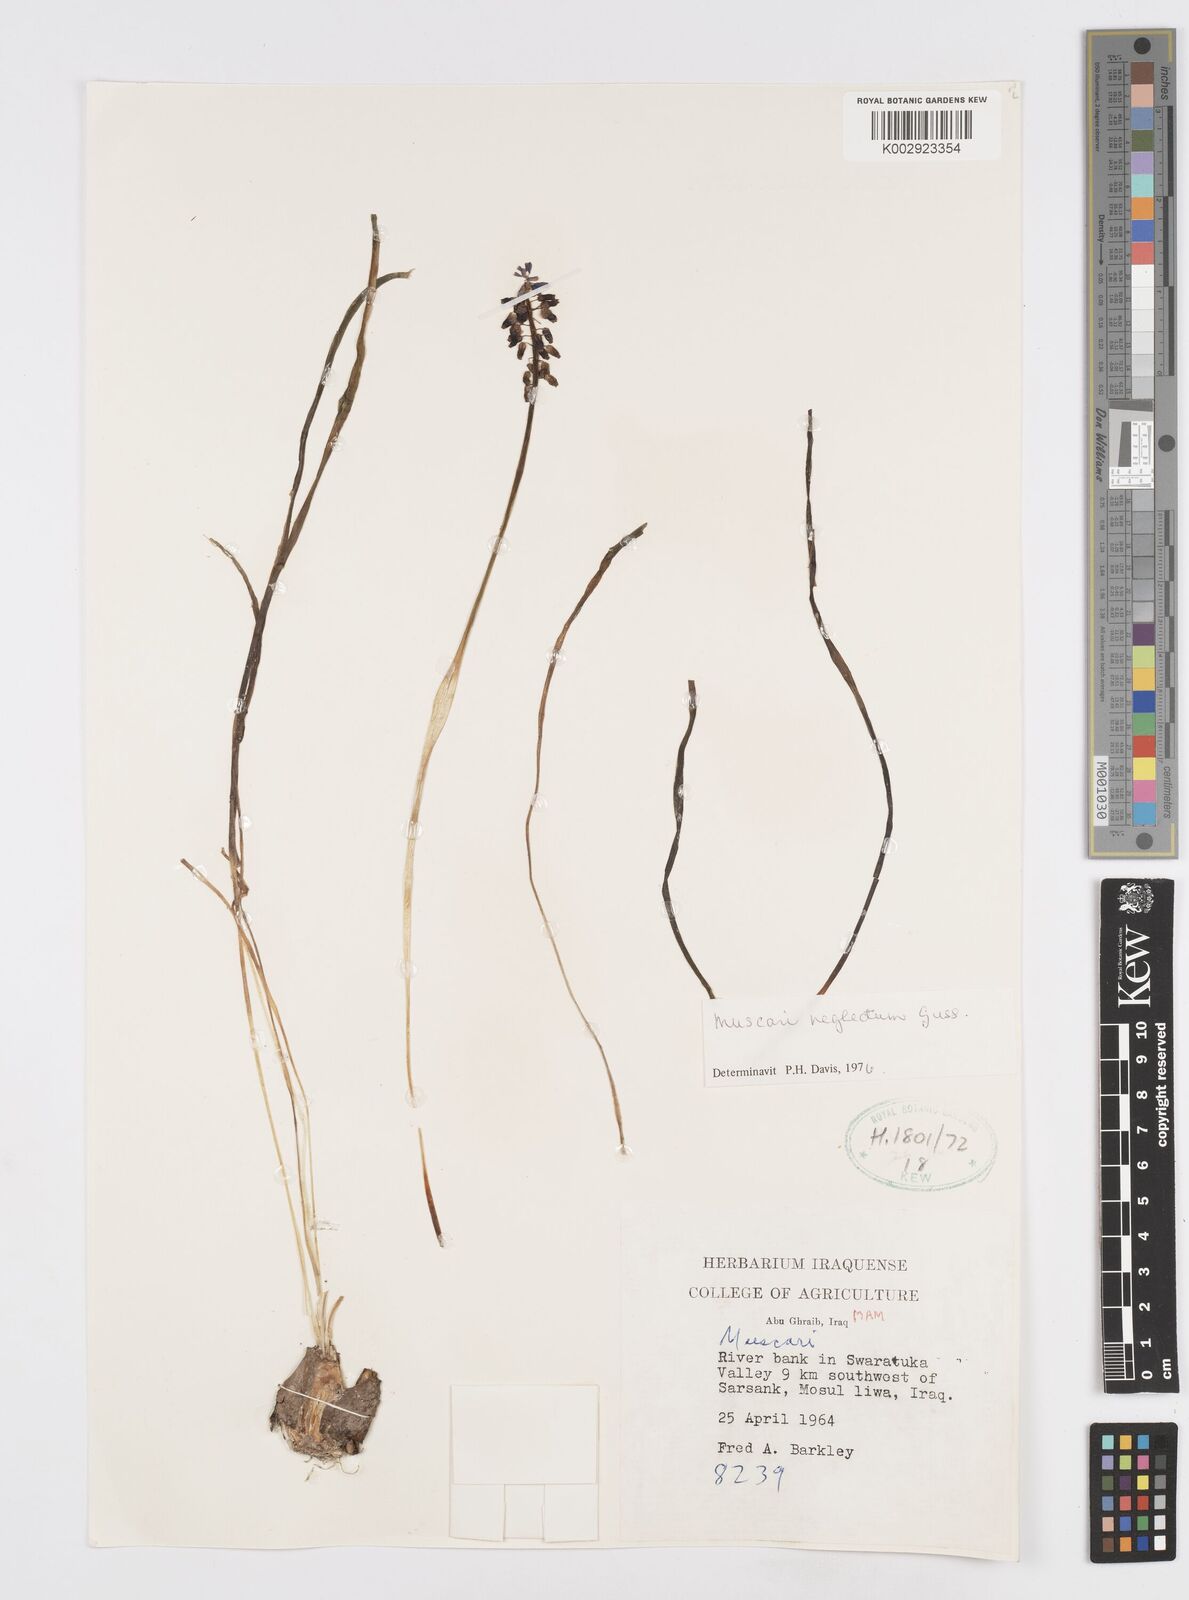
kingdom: Plantae
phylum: Tracheophyta
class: Liliopsida
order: Asparagales
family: Asparagaceae
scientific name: Asparagaceae
